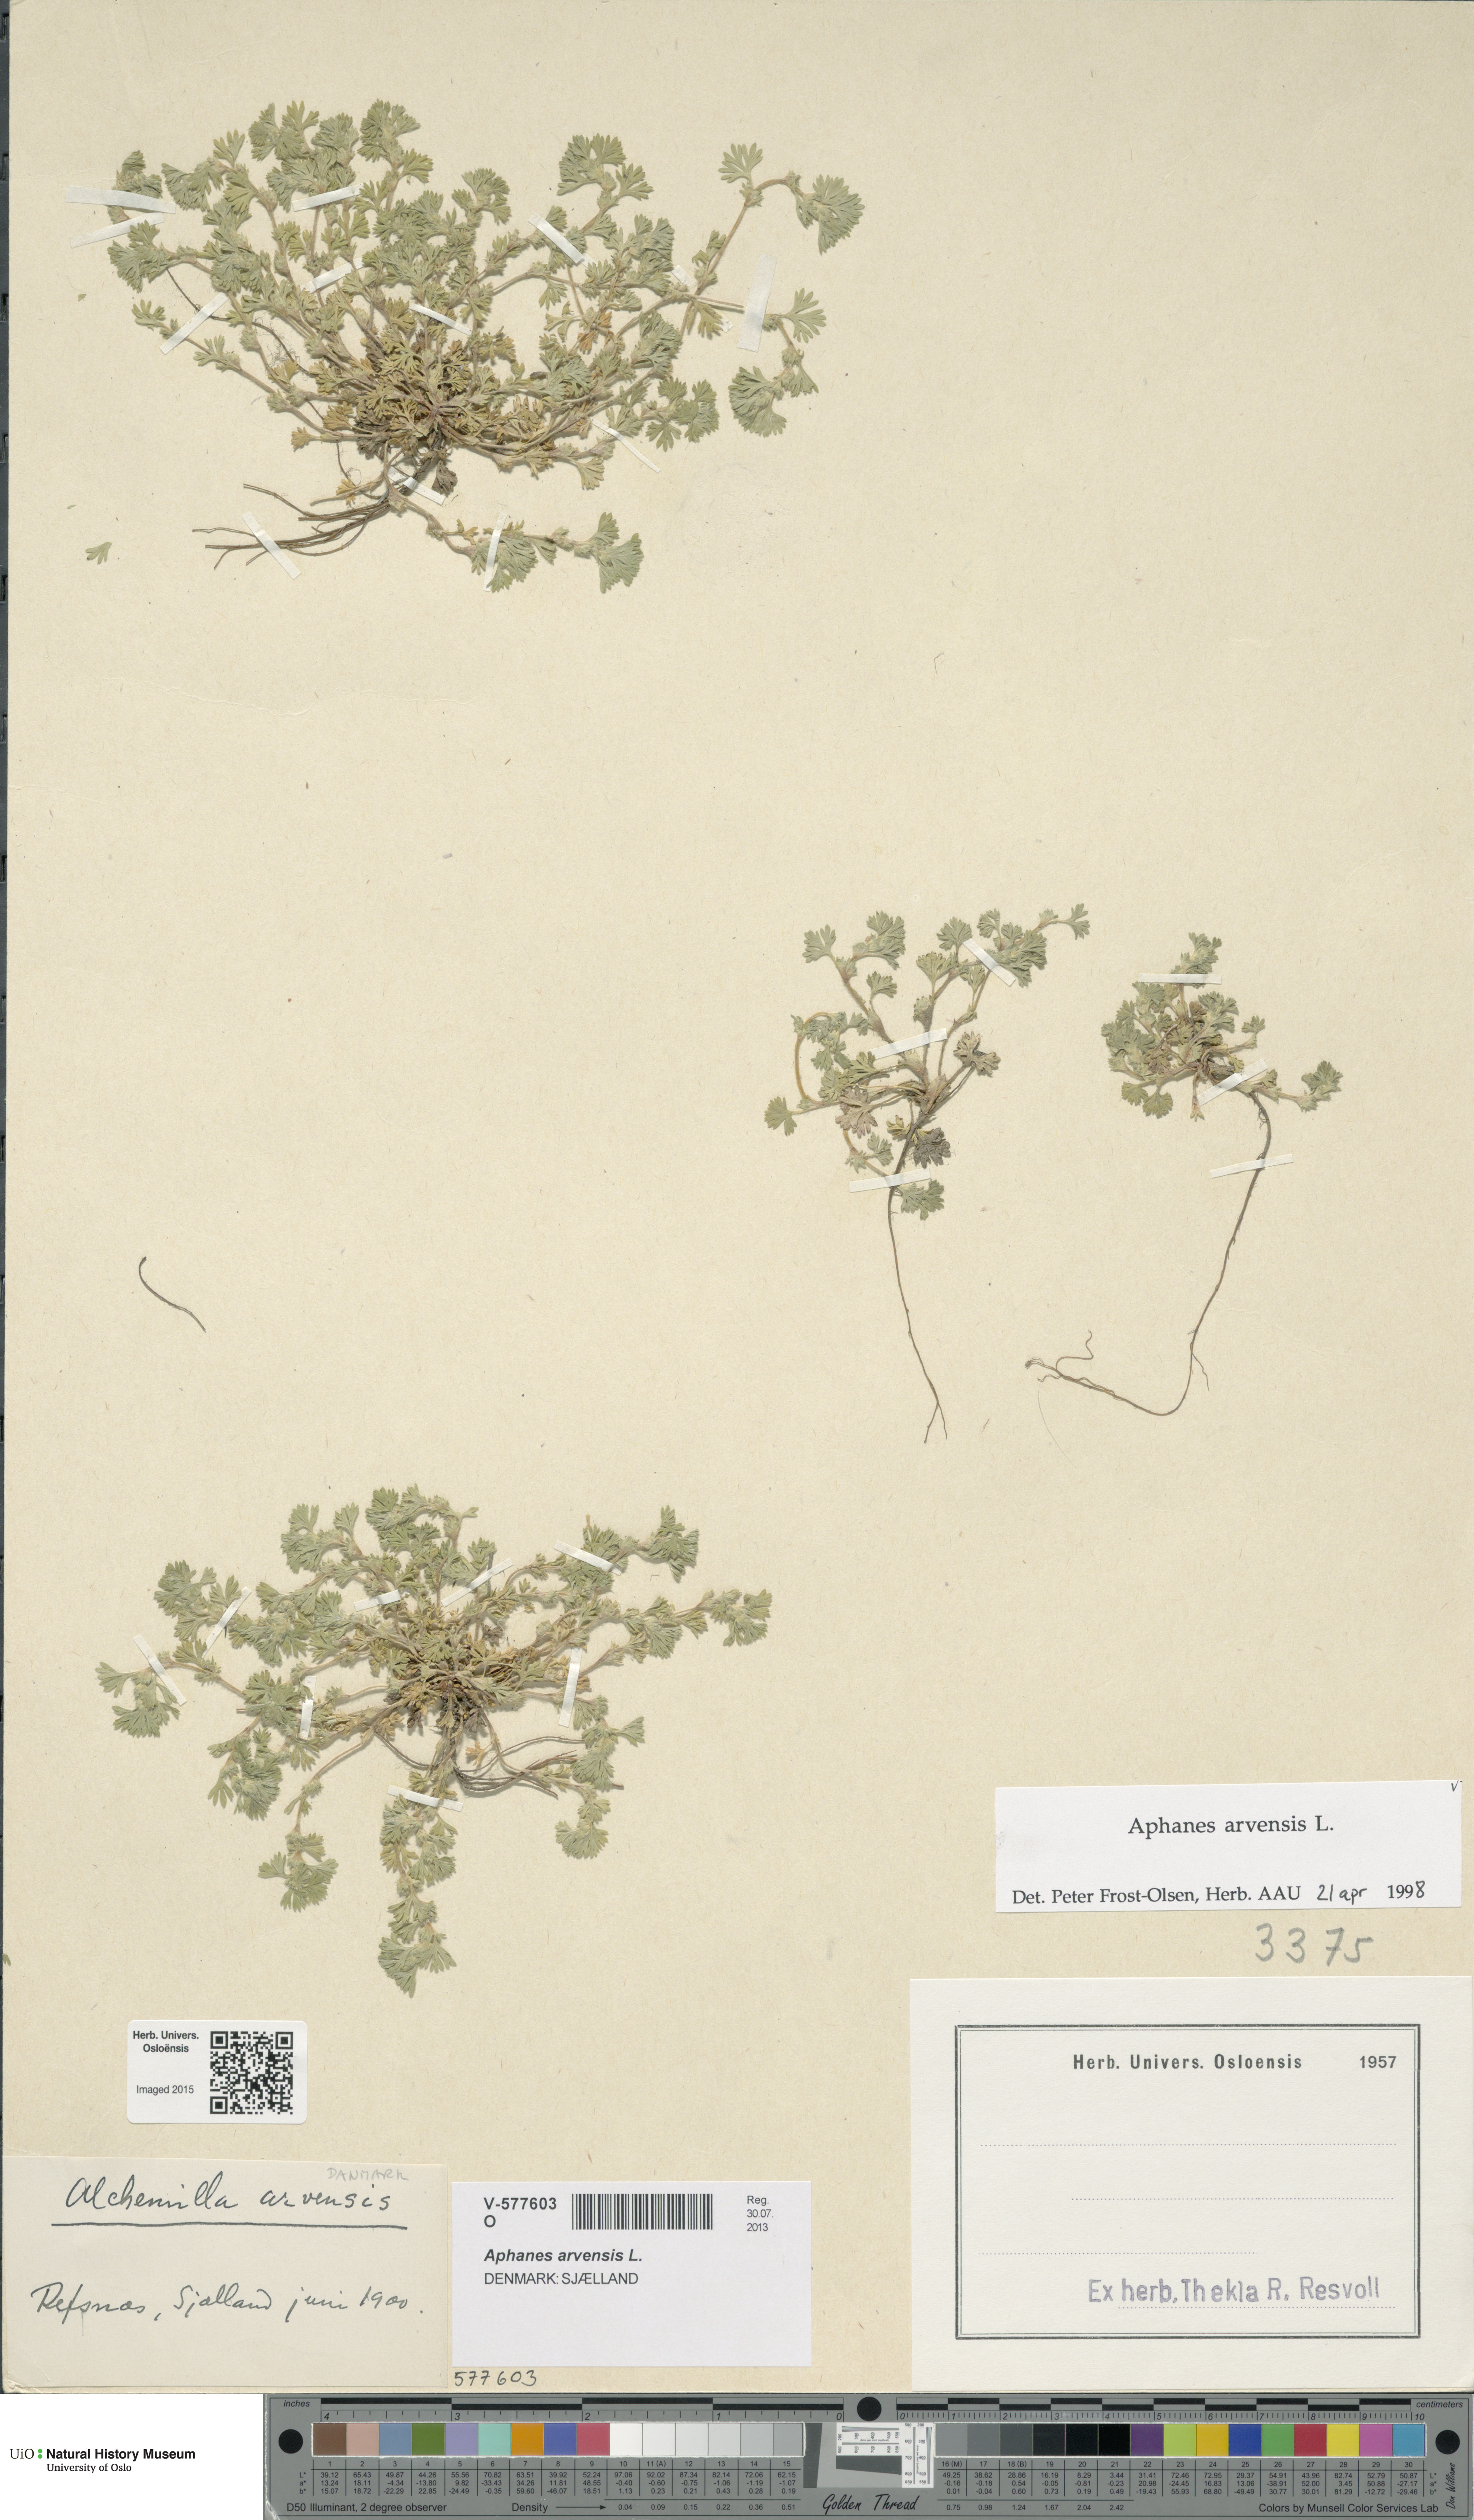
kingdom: Plantae
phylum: Tracheophyta
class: Magnoliopsida
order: Rosales
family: Rosaceae
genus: Aphanes
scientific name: Aphanes arvensis
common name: Parsley-piert
